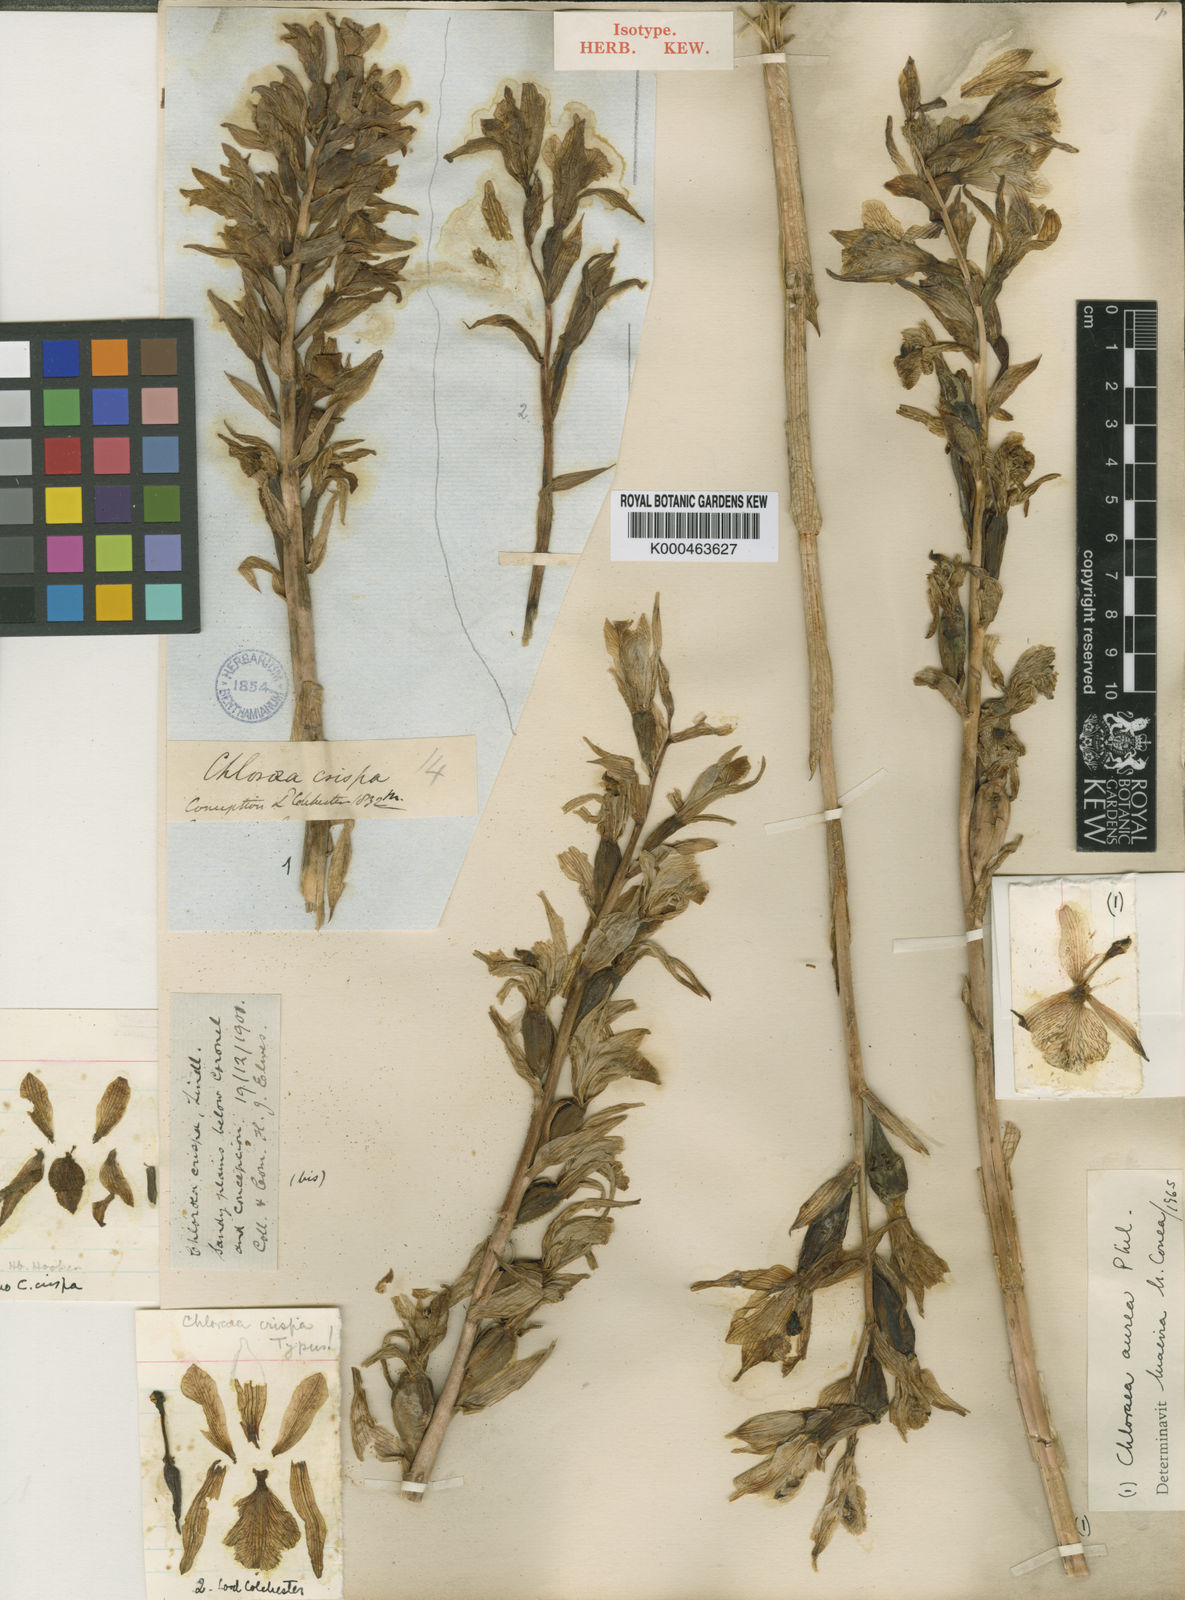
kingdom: Plantae
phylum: Tracheophyta
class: Liliopsida
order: Asparagales
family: Orchidaceae
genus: Chloraea
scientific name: Chloraea barbata
